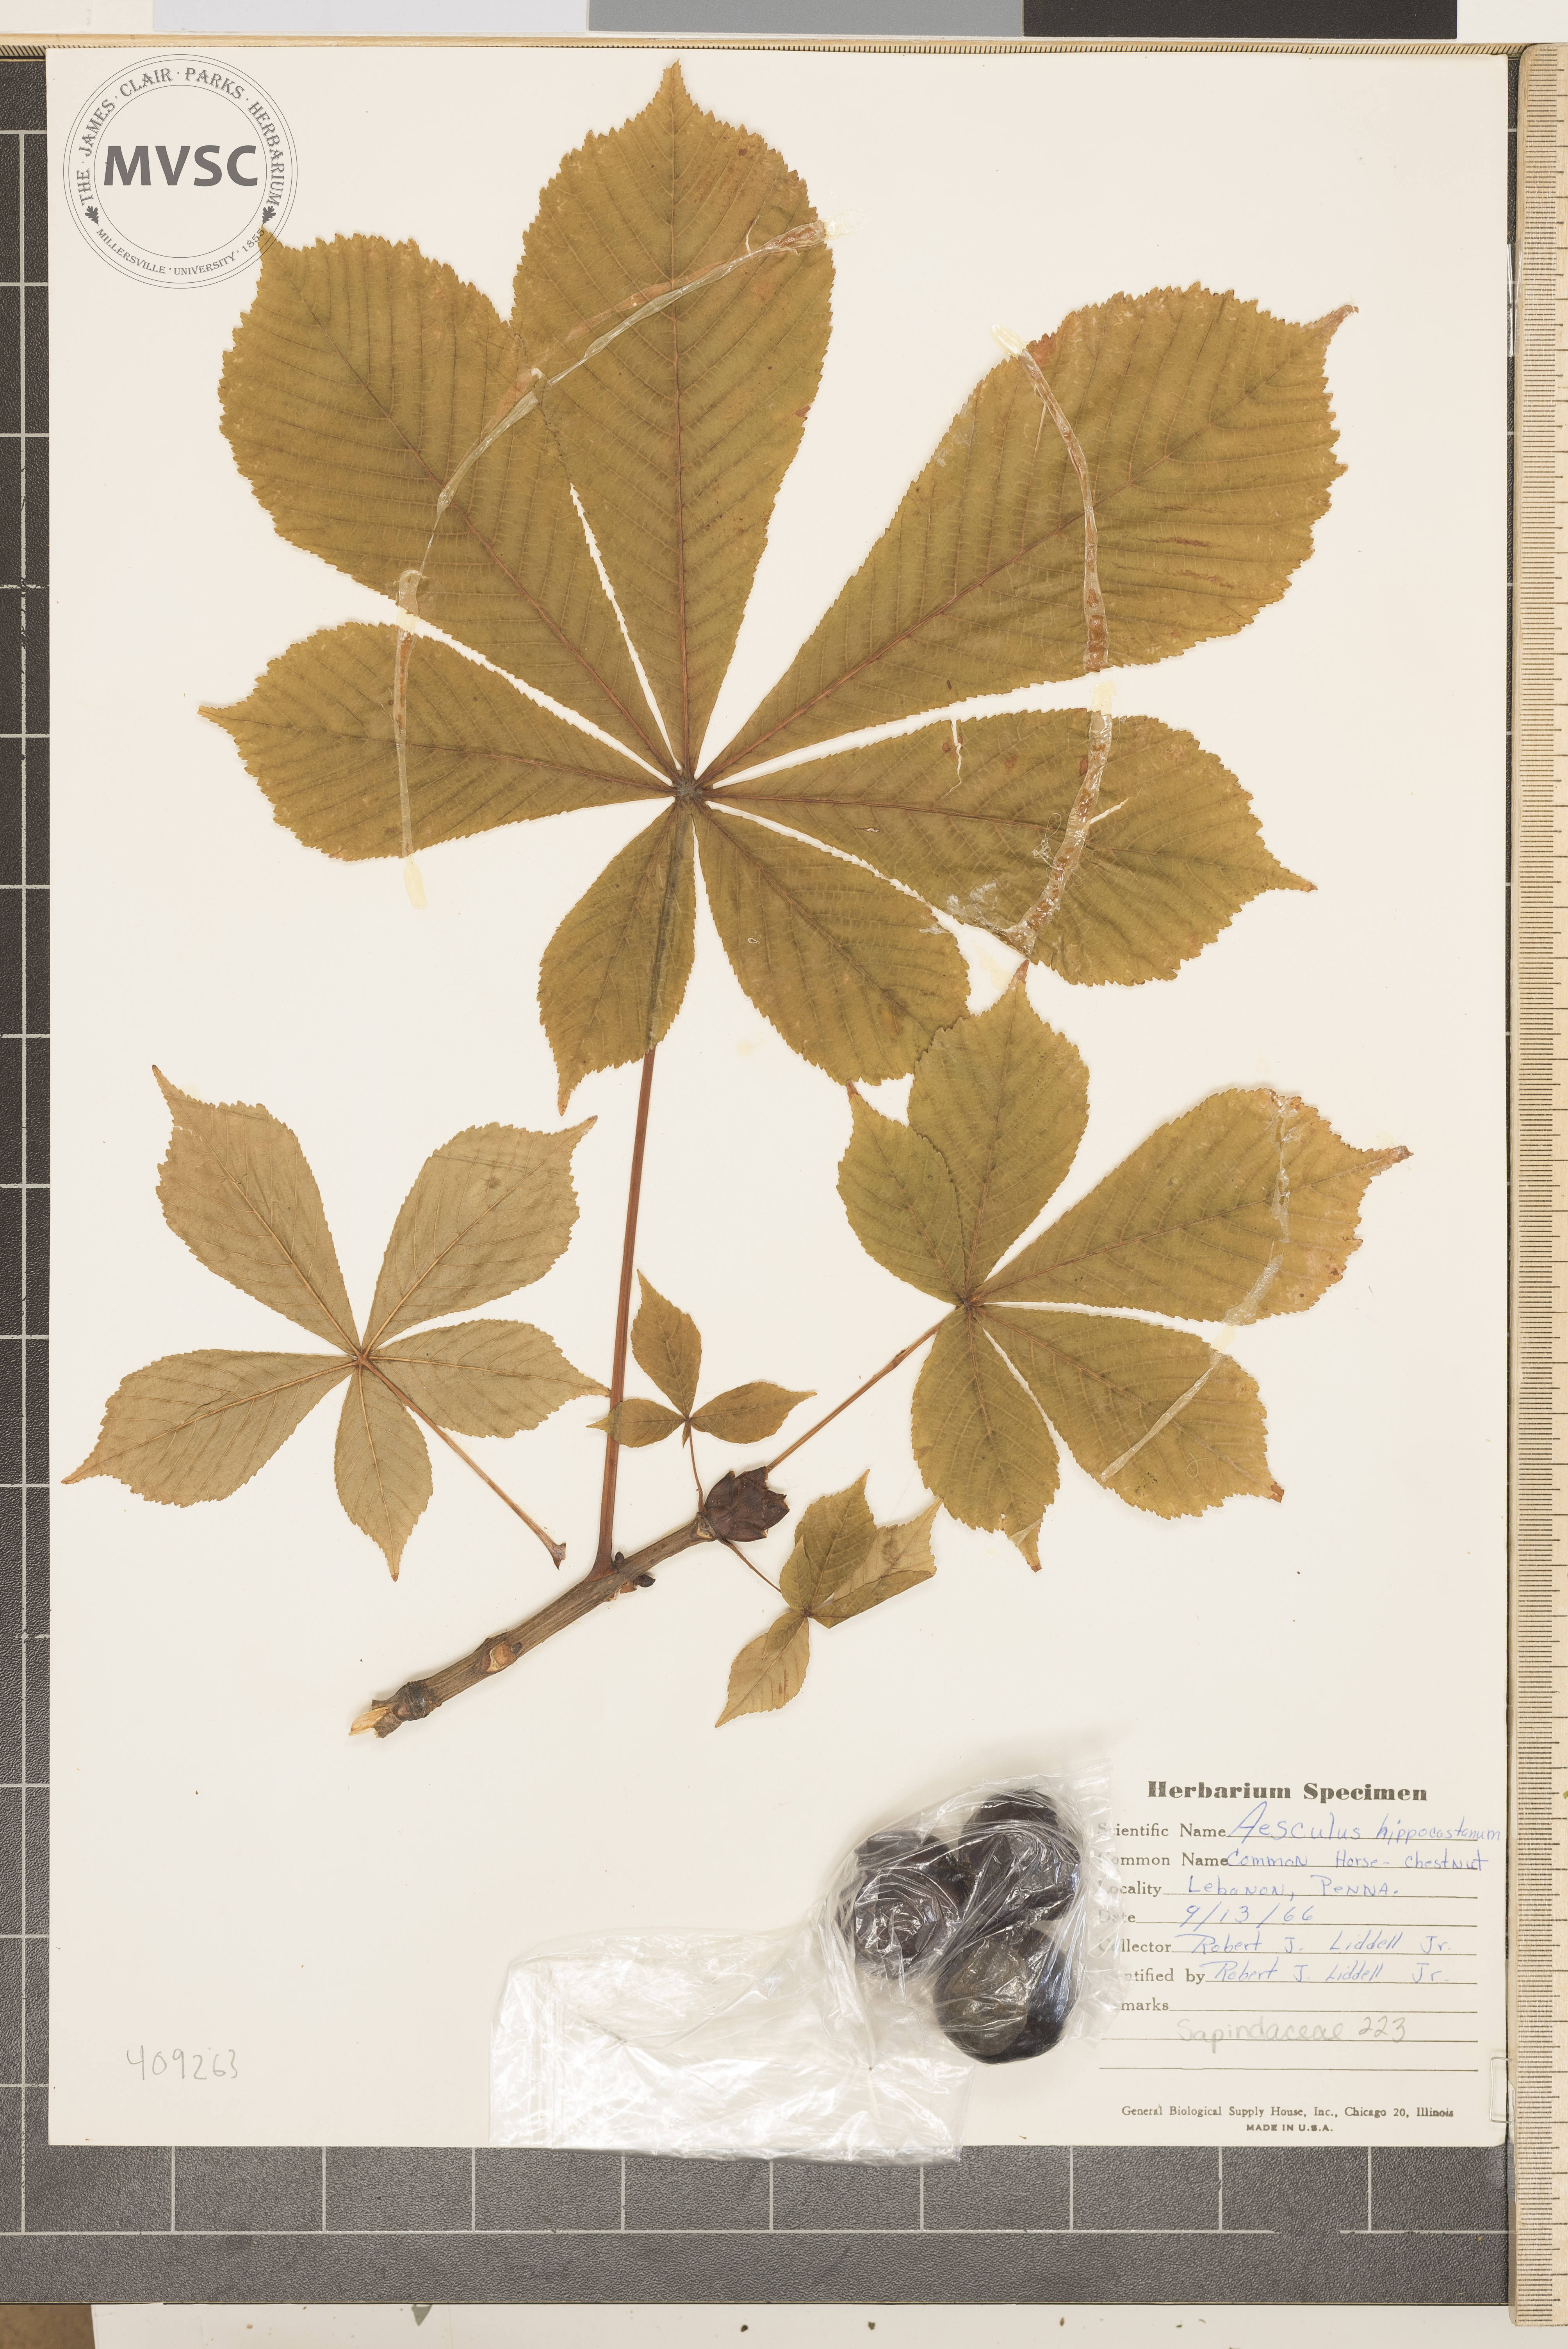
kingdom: Plantae
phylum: Tracheophyta
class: Magnoliopsida
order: Sapindales
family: Sapindaceae
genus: Aesculus
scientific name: Aesculus hippocastanum
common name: Horse-chestnut
